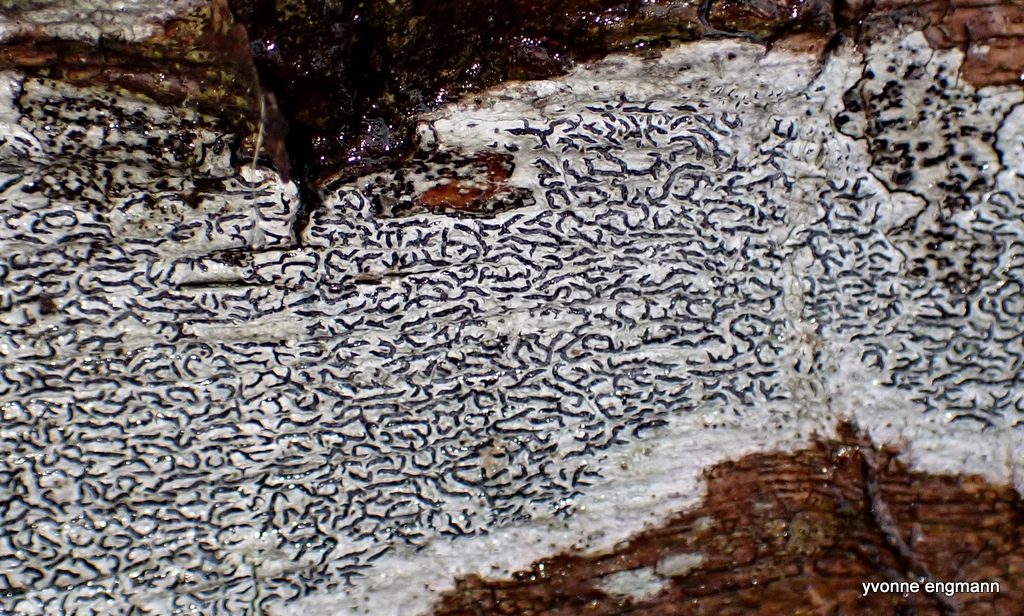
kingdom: Fungi
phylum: Ascomycota
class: Lecanoromycetes
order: Ostropales
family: Graphidaceae
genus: Graphis
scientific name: Graphis scripta
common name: almindelig skriftlav
